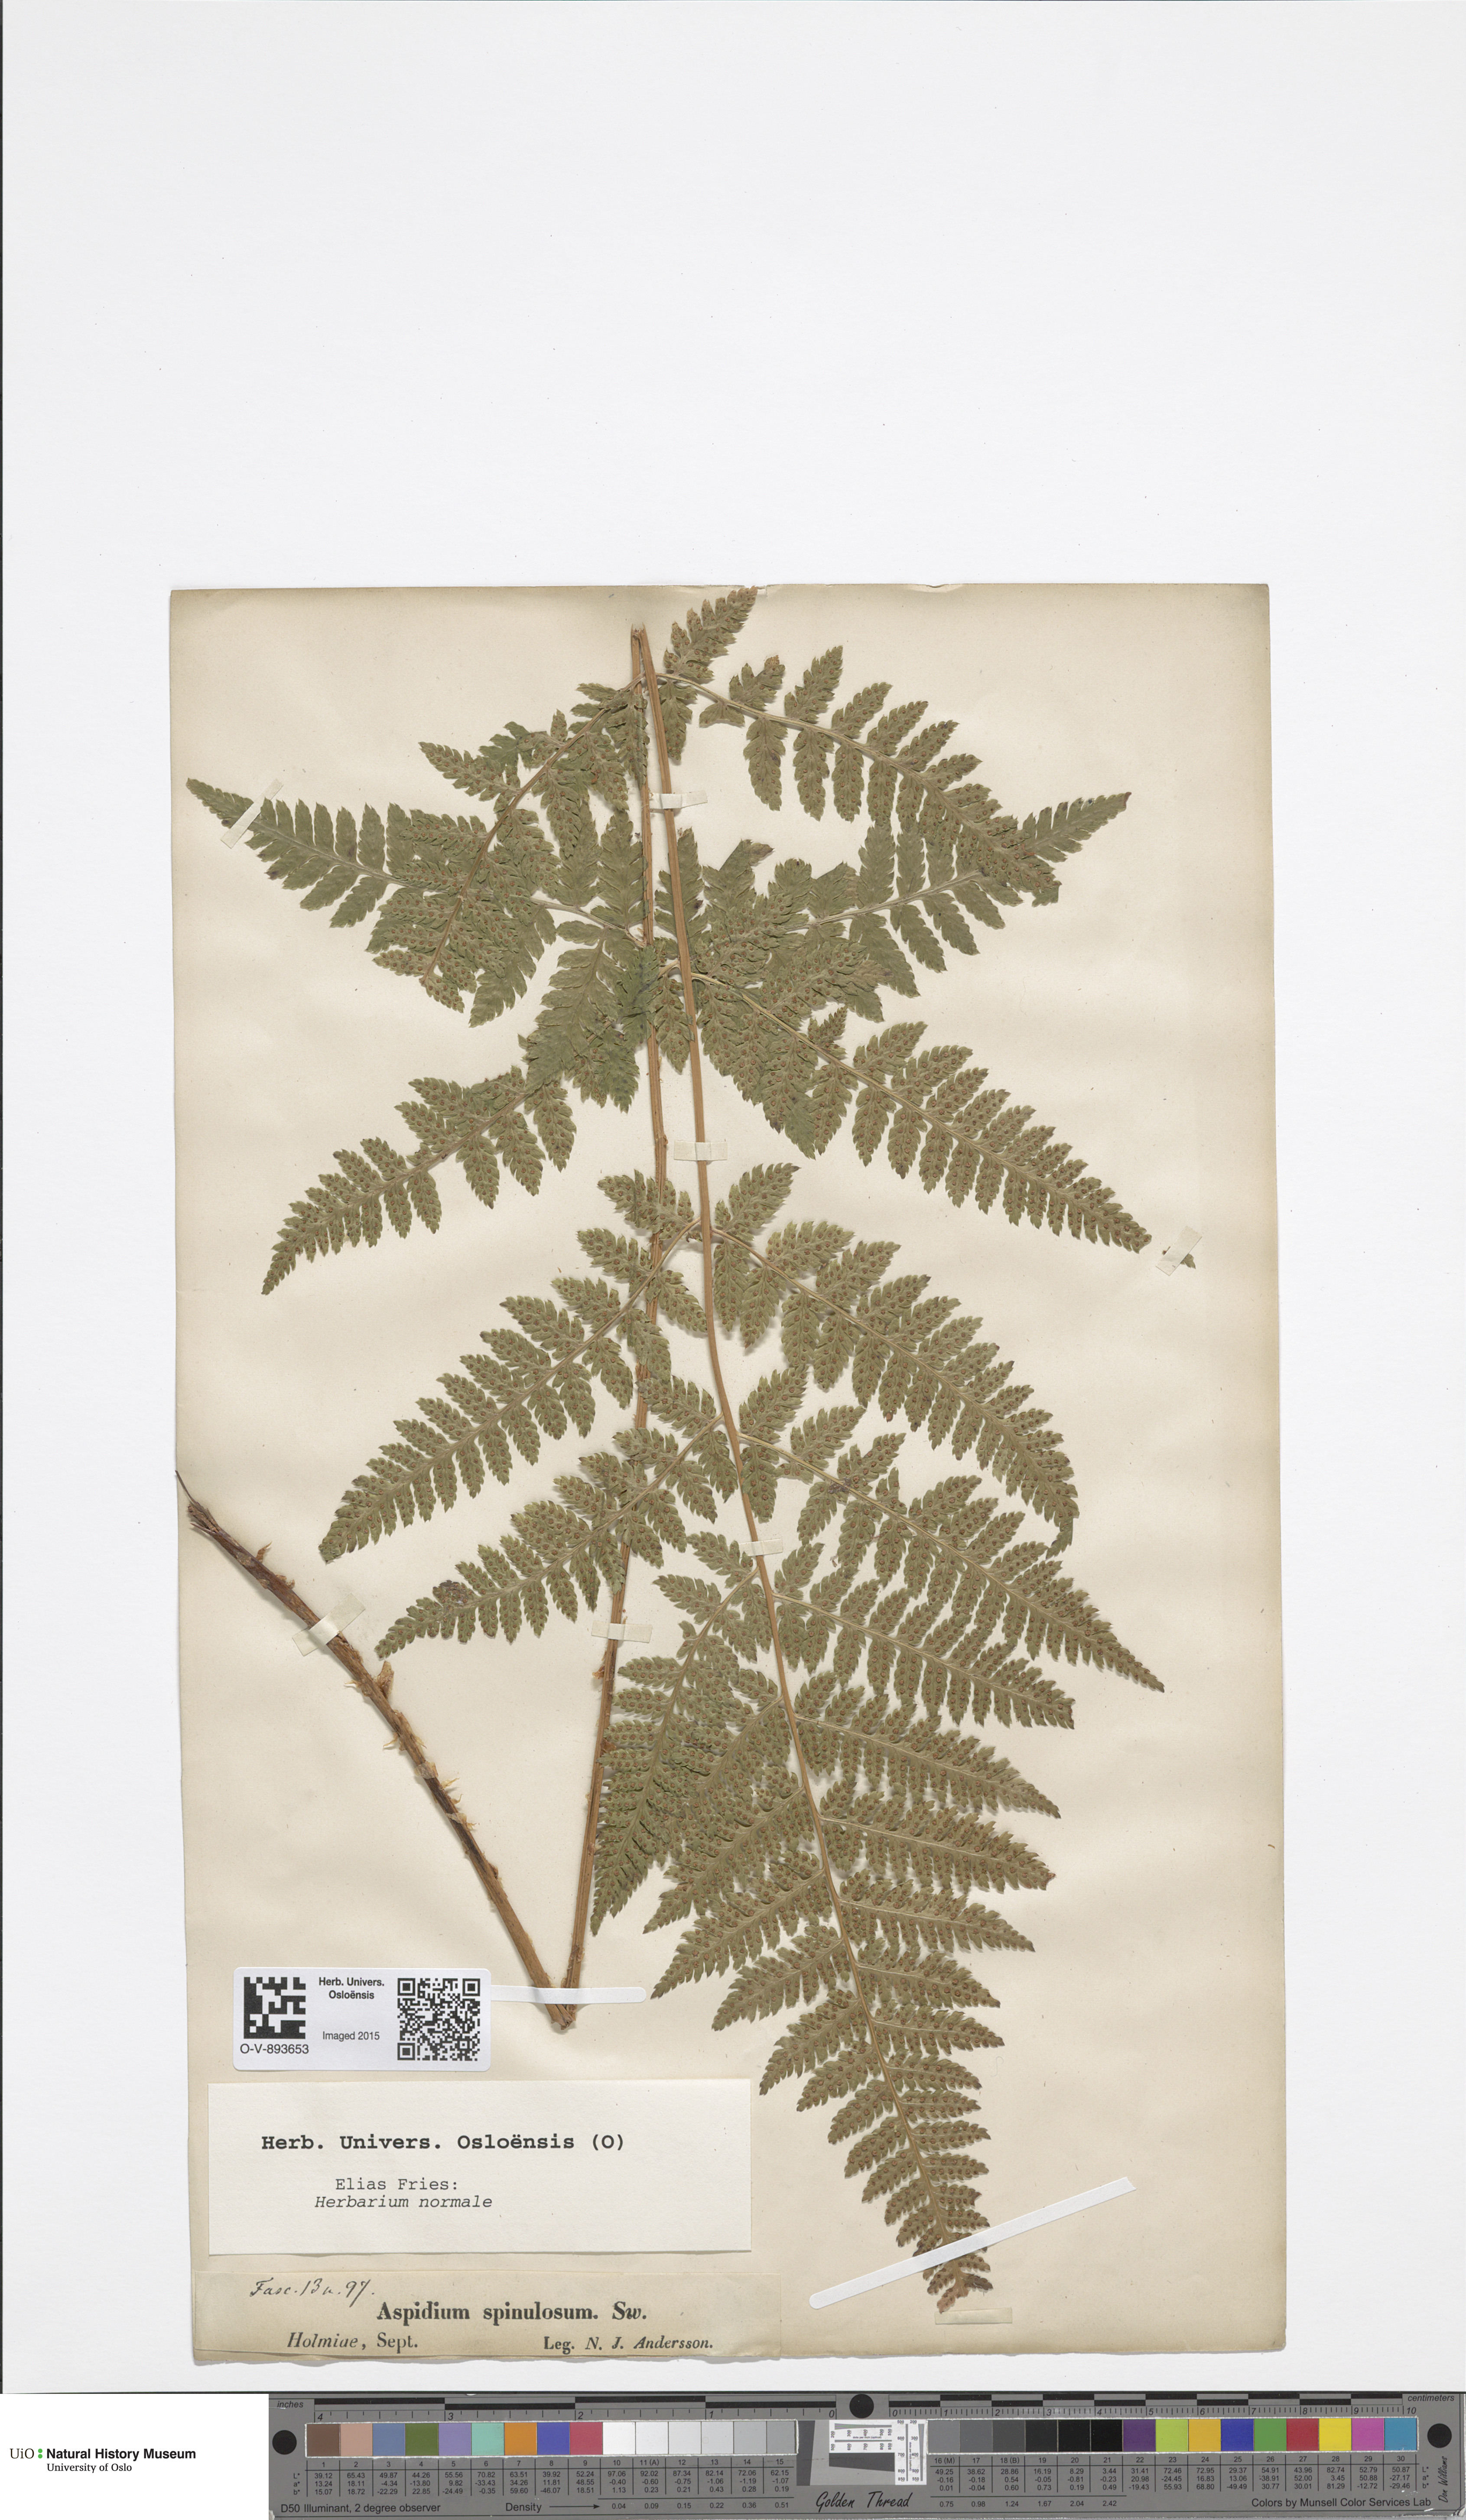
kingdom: Plantae
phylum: Tracheophyta
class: Polypodiopsida
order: Polypodiales
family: Dryopteridaceae
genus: Dryopteris
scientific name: Dryopteris carthusiana
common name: Narrow buckler-fern
